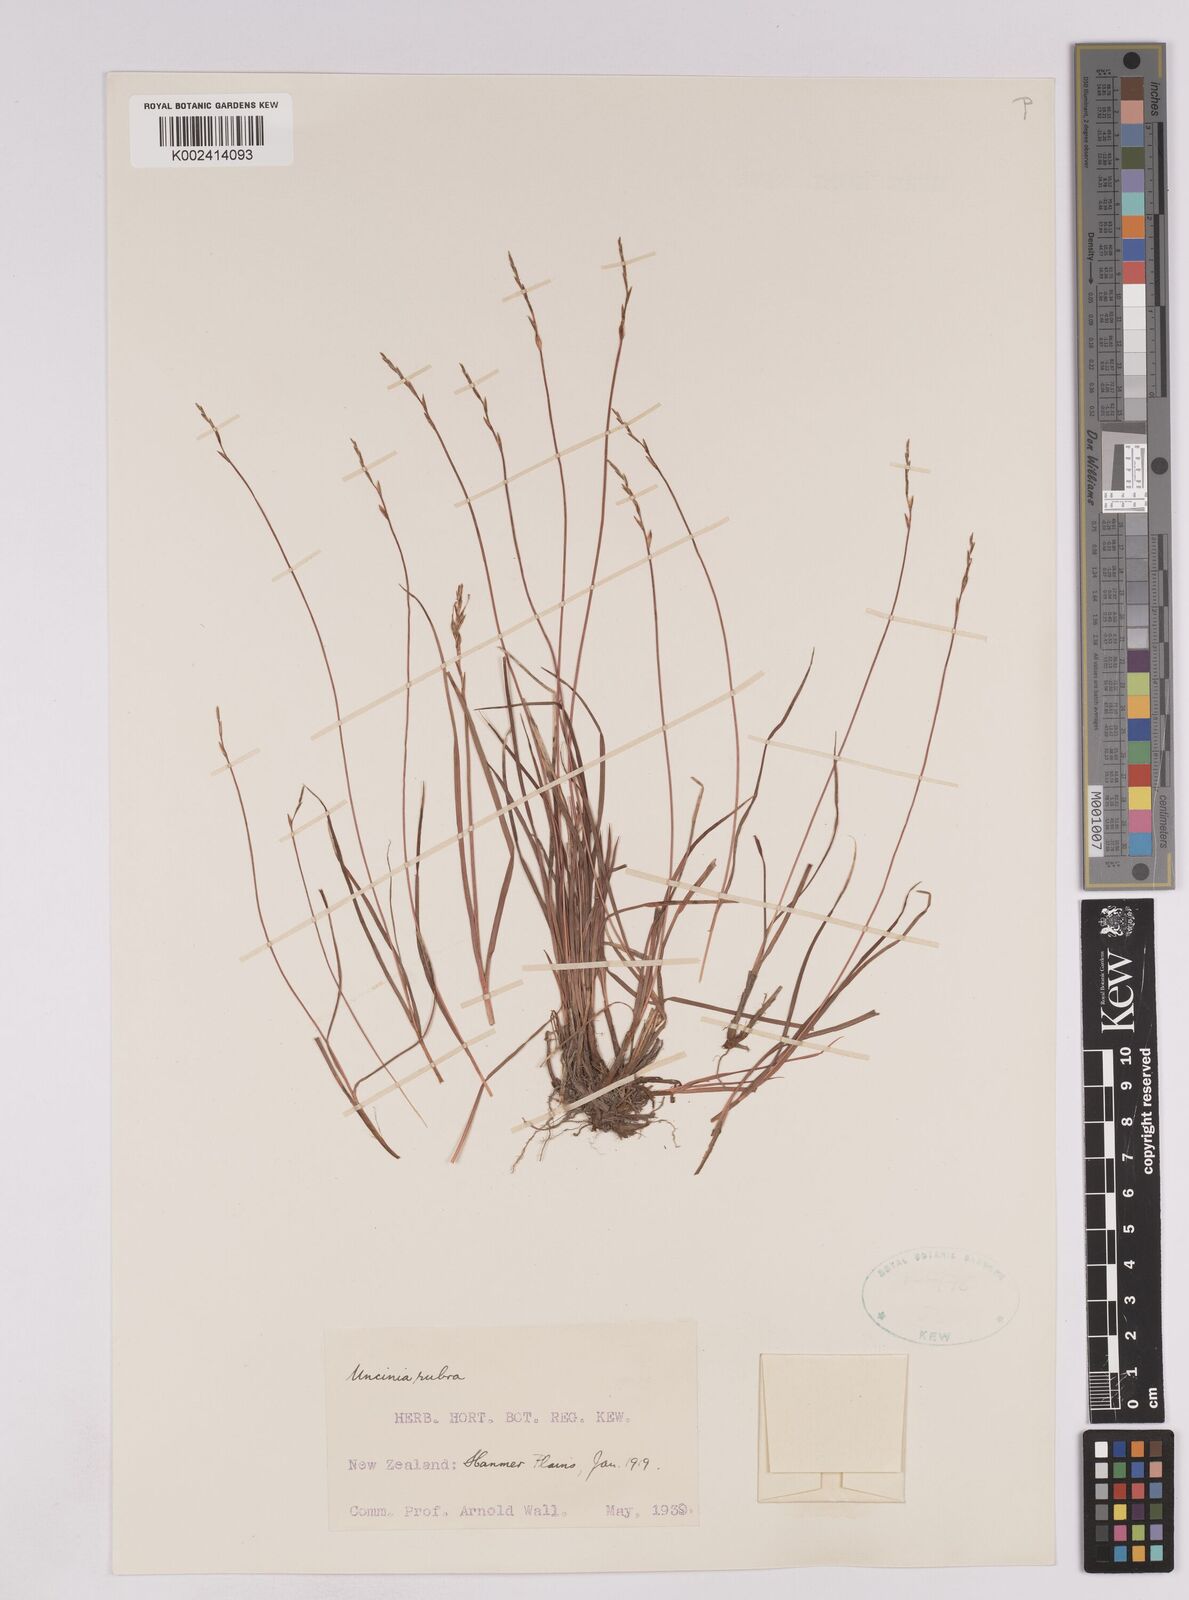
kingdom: Plantae
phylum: Tracheophyta
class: Liliopsida
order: Poales
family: Cyperaceae
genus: Carex
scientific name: Carex punicea
